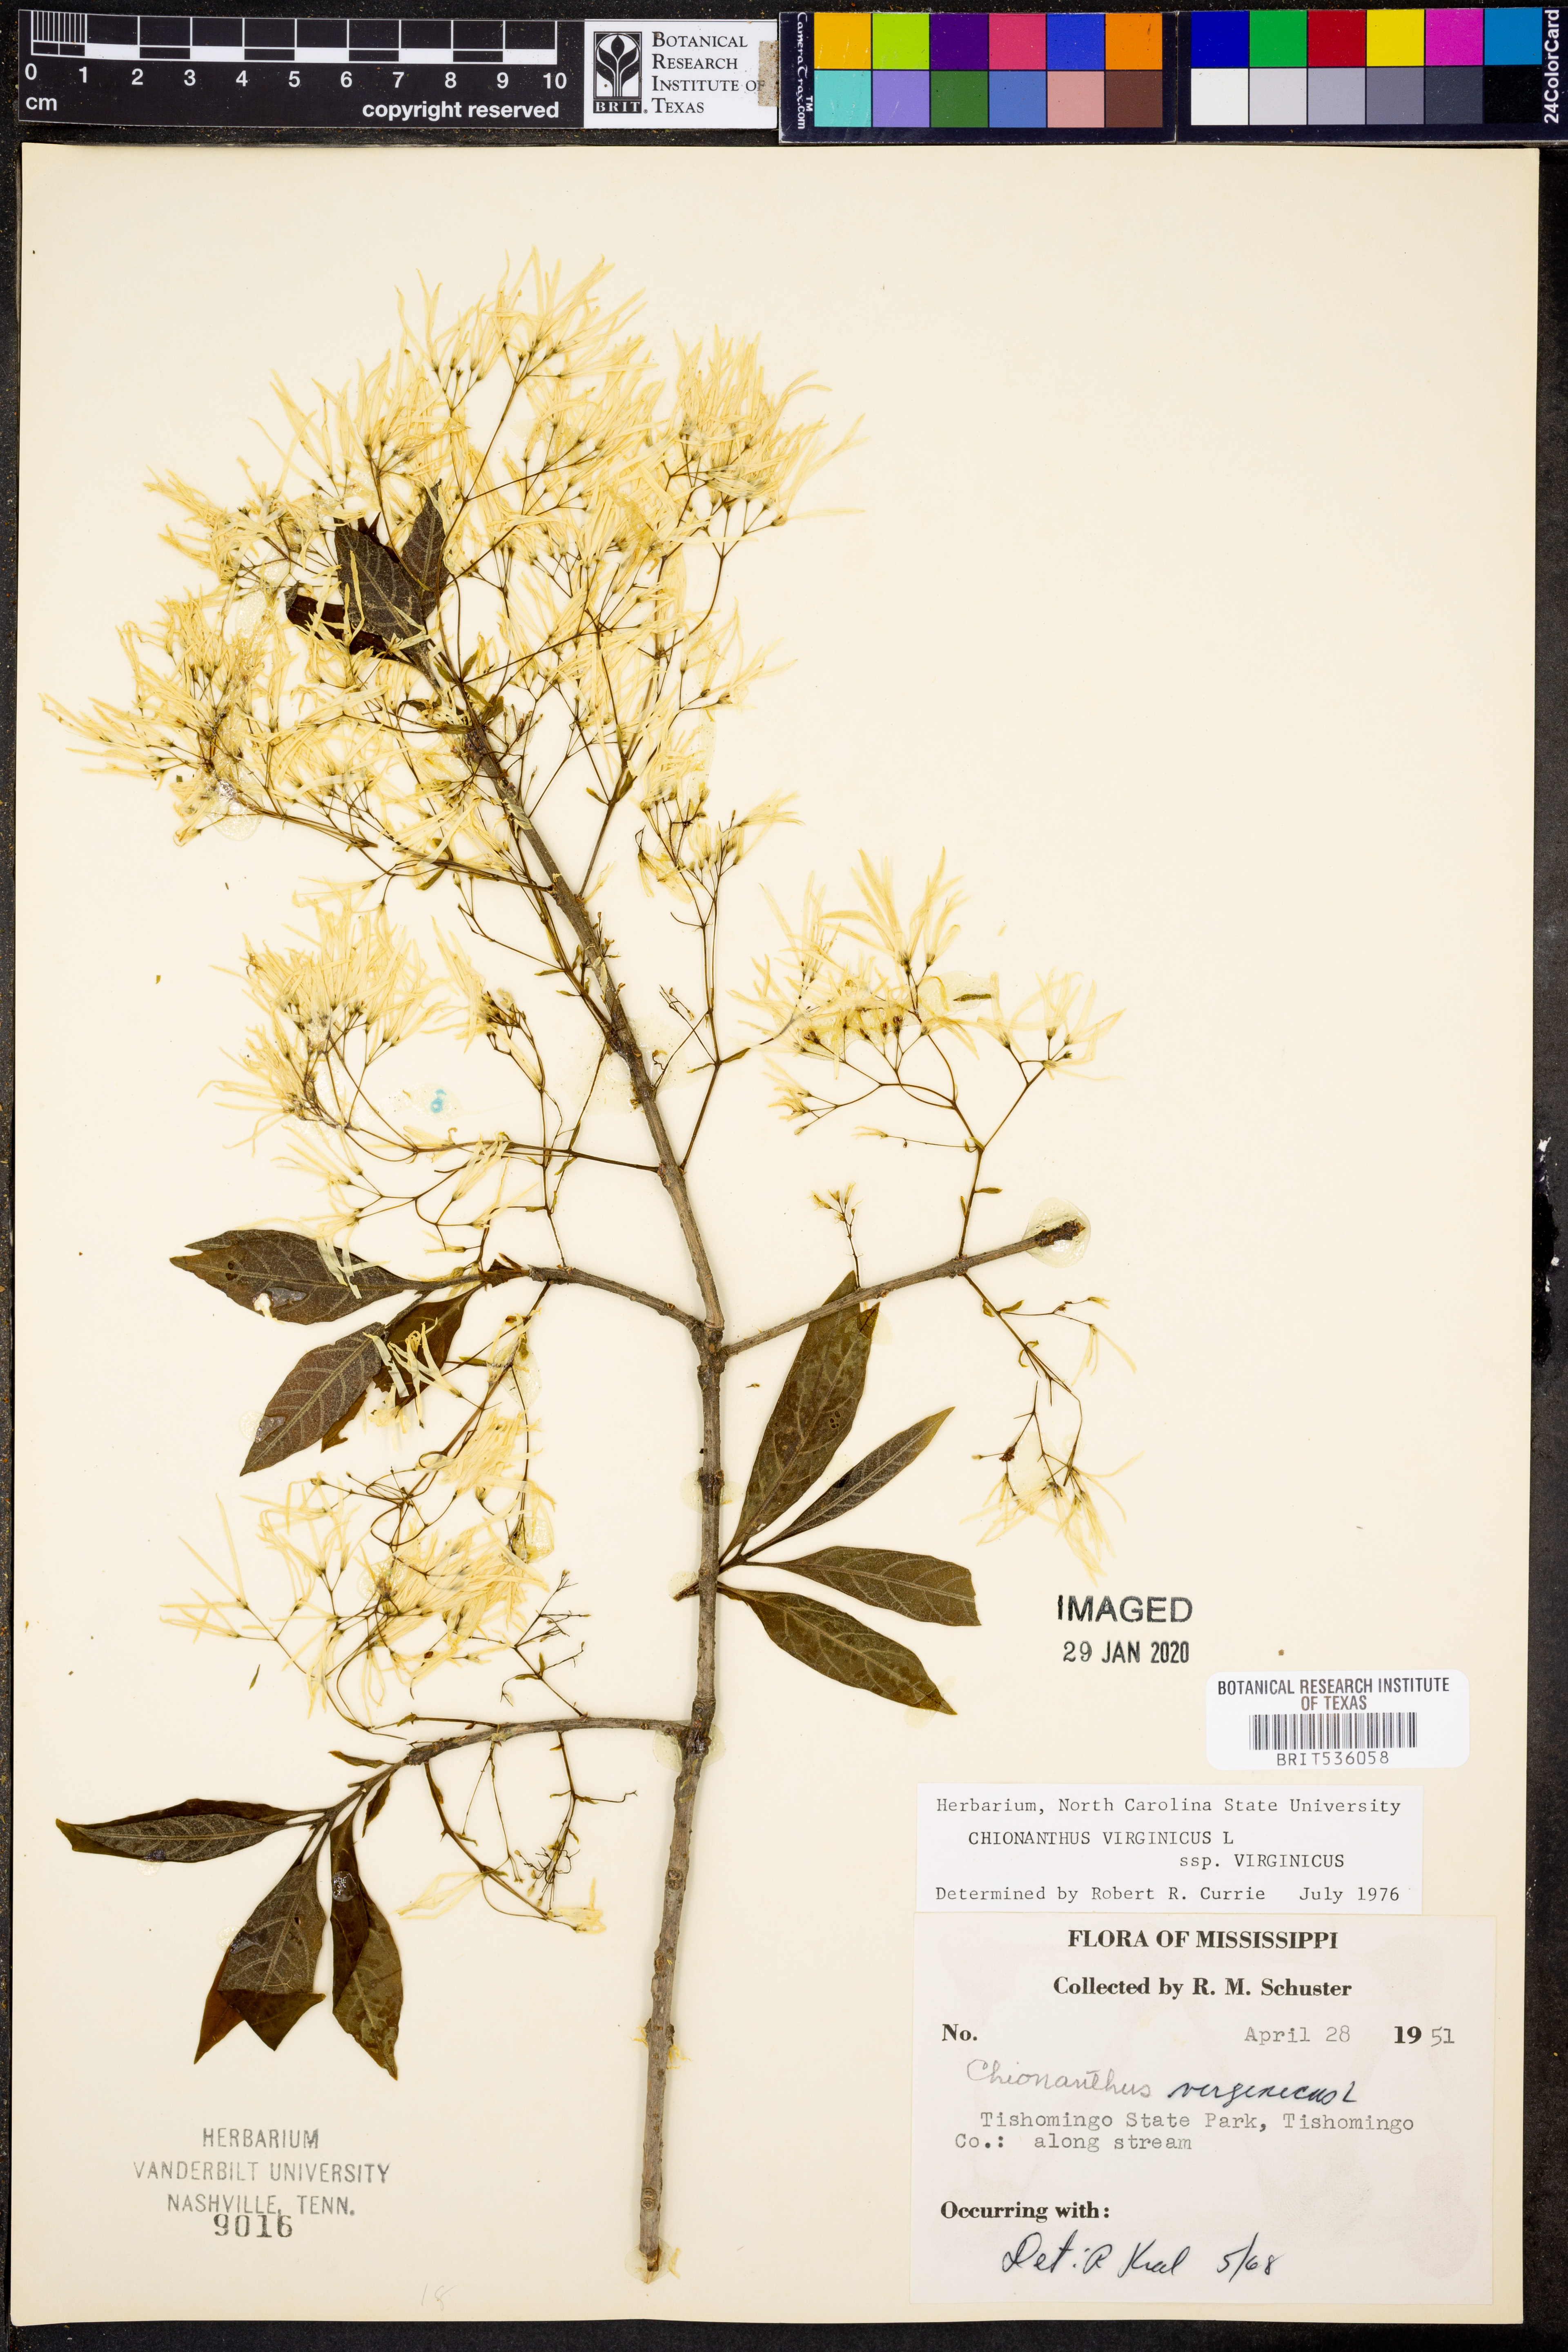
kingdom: Plantae
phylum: Tracheophyta
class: Magnoliopsida
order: Lamiales
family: Oleaceae
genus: Chionanthus
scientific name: Chionanthus virginicus
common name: American fringetree
